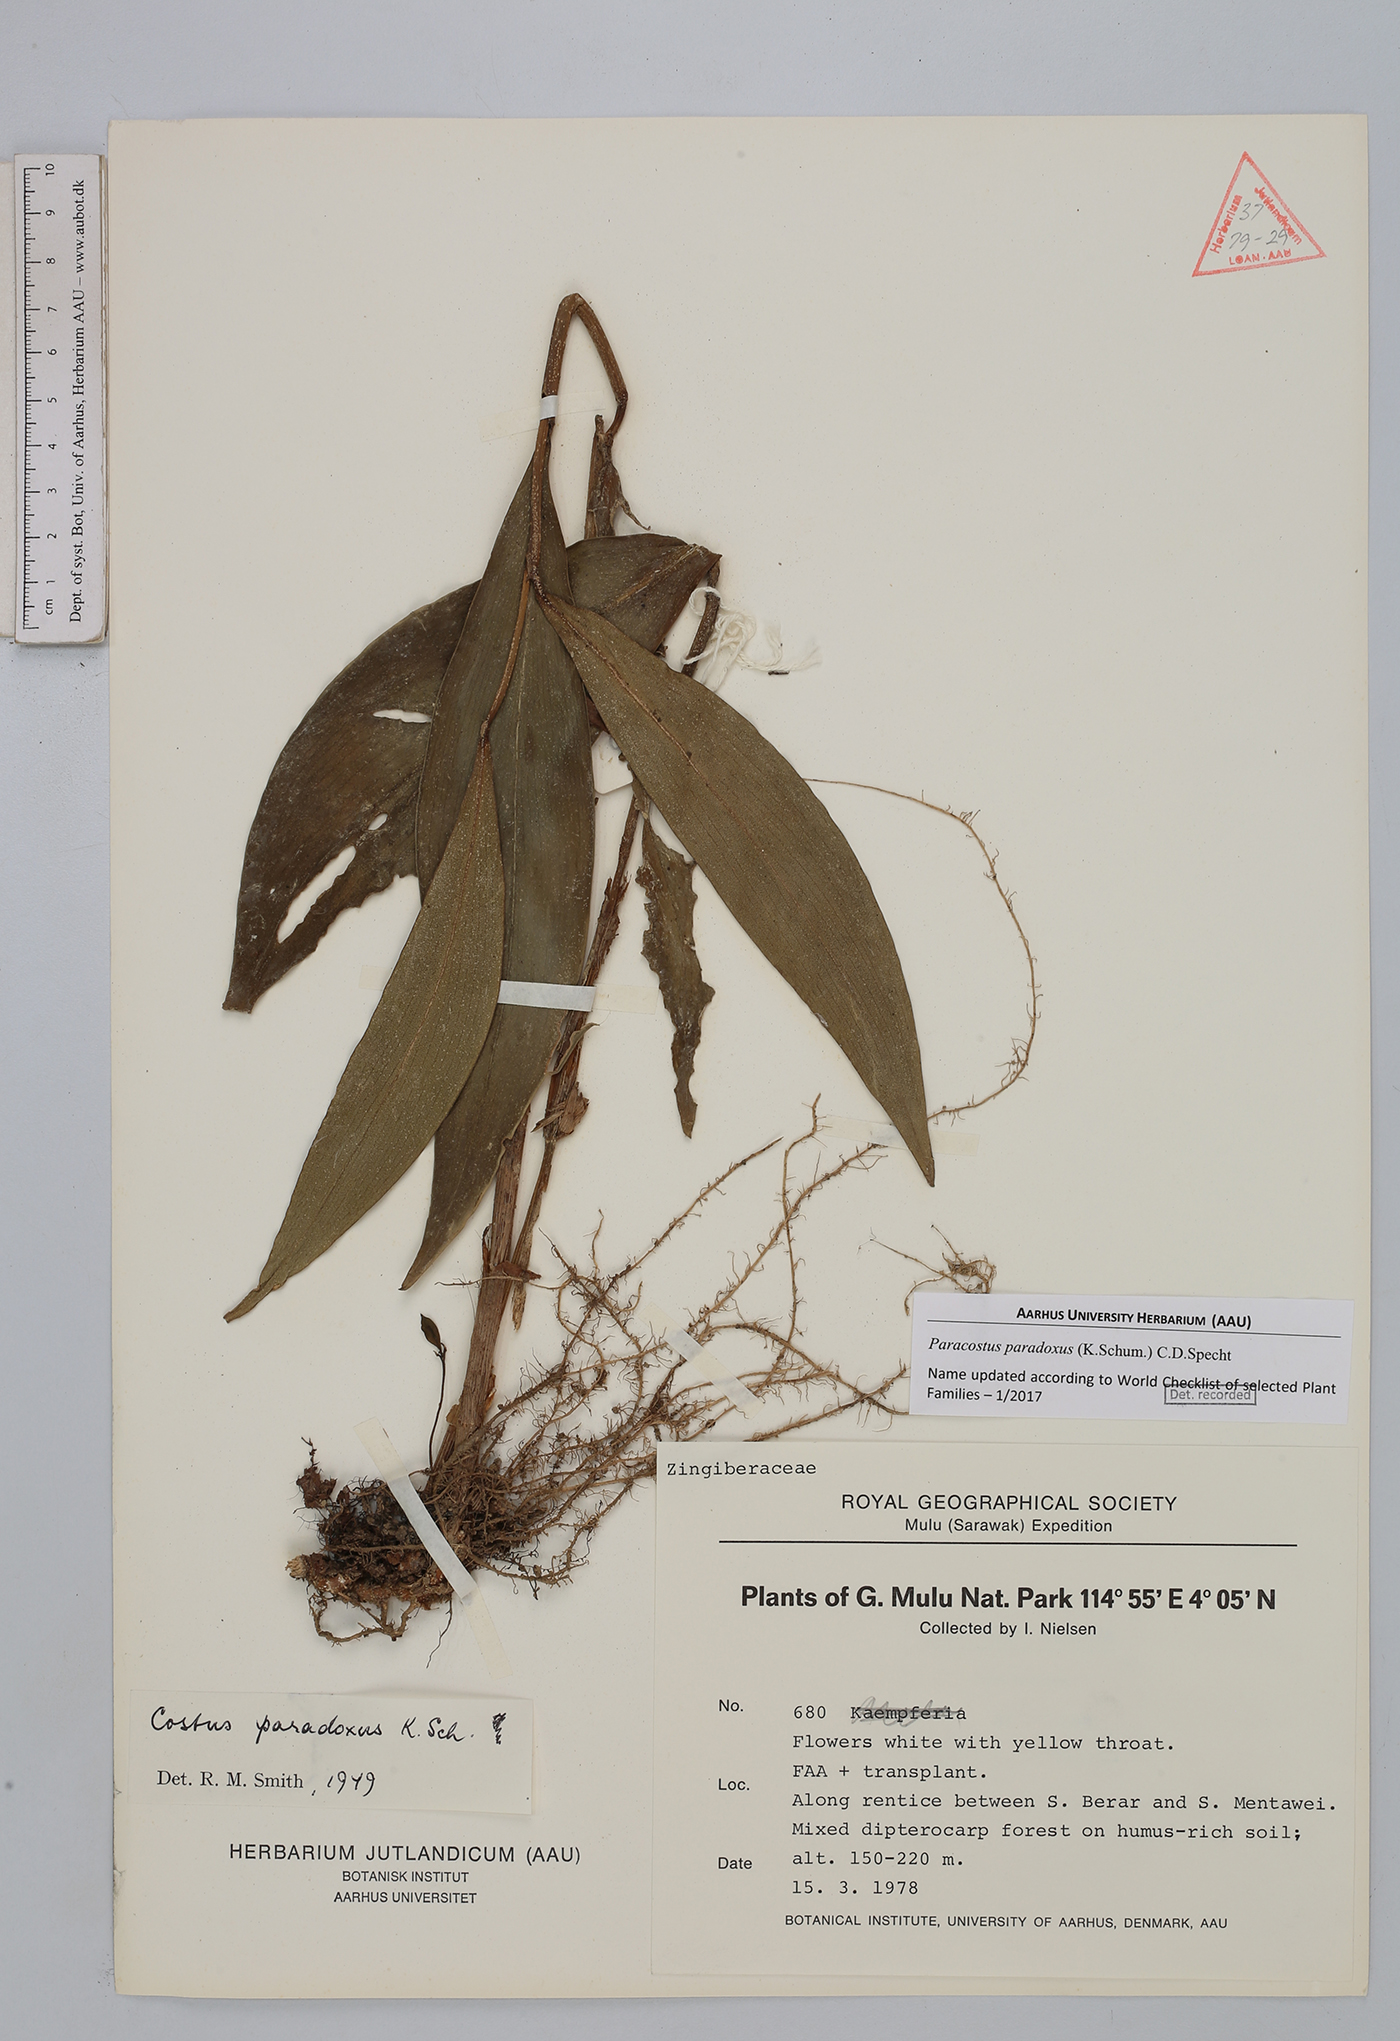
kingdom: Plantae
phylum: Tracheophyta
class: Liliopsida
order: Zingiberales
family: Costaceae
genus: Paracostus
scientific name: Paracostus paradoxus
